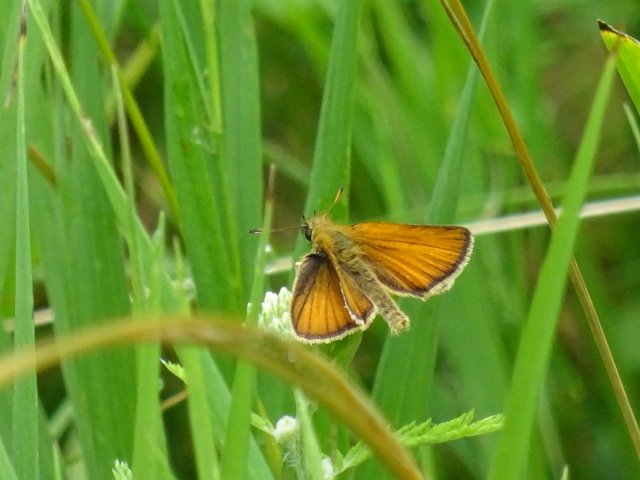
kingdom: Animalia
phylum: Arthropoda
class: Insecta
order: Lepidoptera
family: Hesperiidae
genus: Thymelicus
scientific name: Thymelicus lineola
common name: European Skipper
